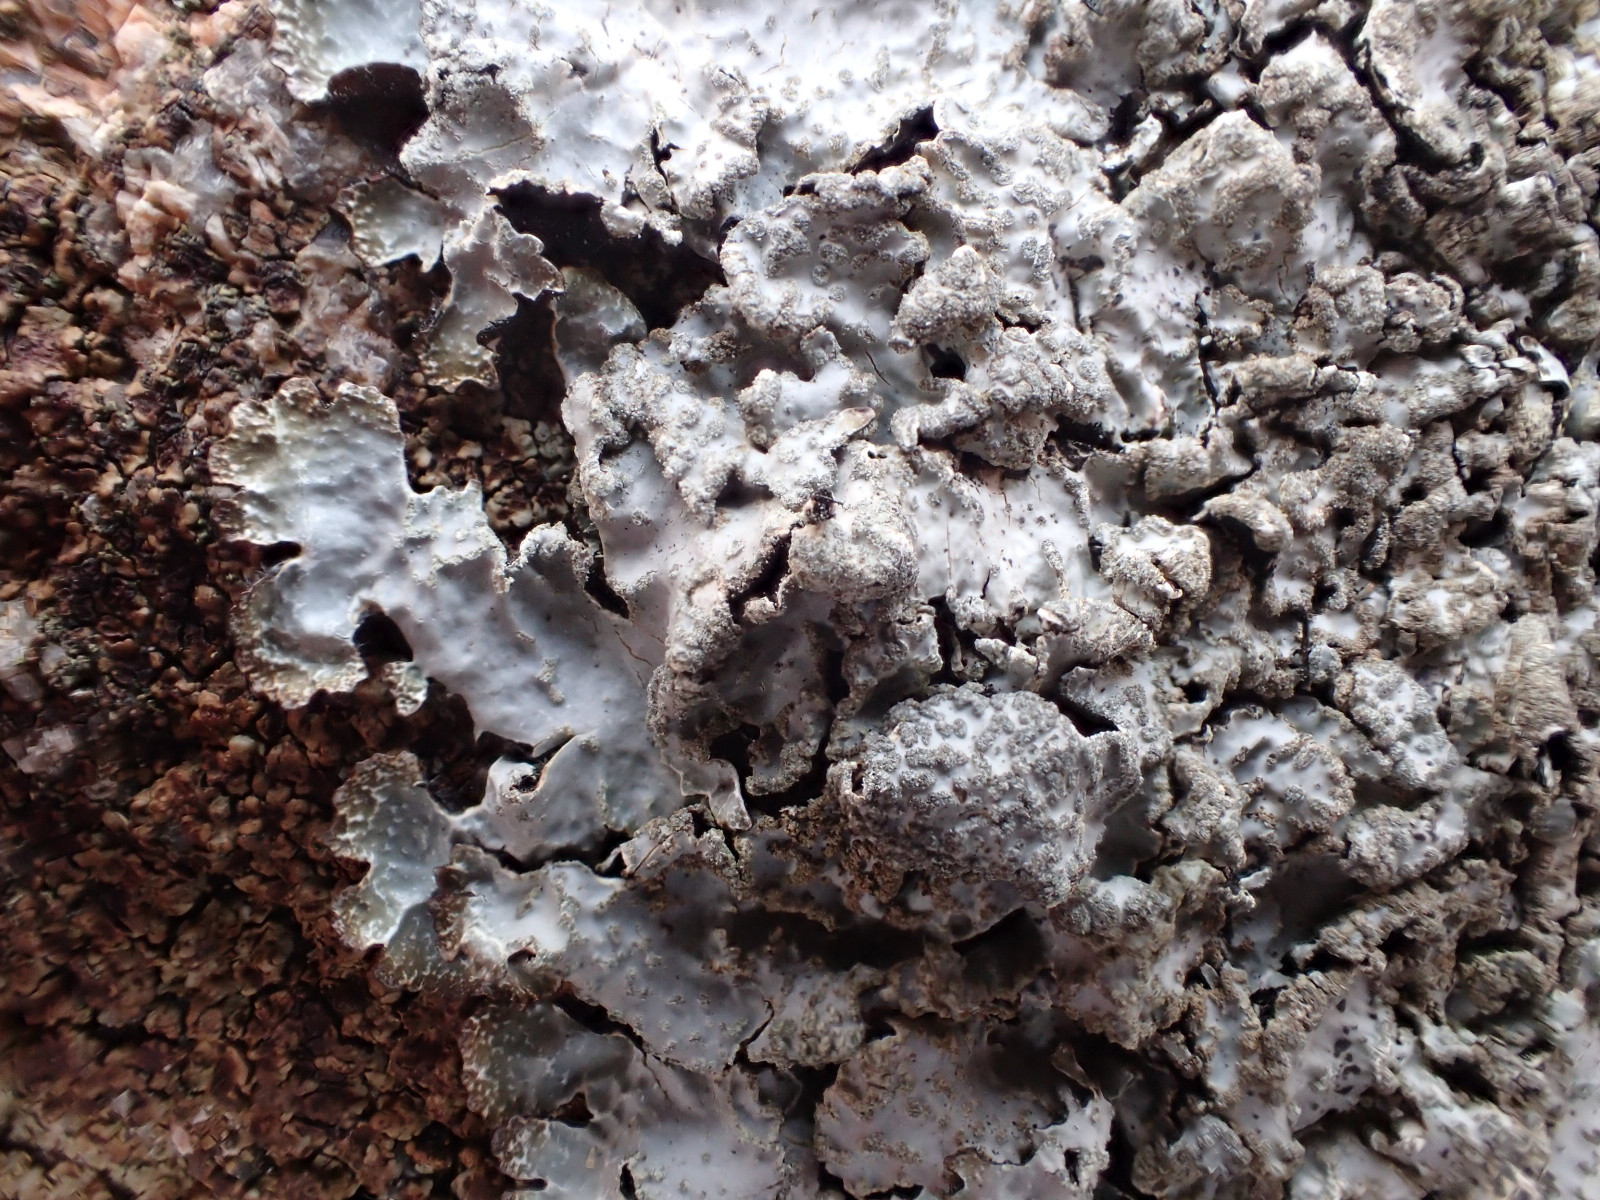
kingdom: Fungi
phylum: Ascomycota
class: Lecanoromycetes
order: Lecanorales
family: Parmeliaceae
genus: Parmelia
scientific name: Parmelia sulcata
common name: rynket skållav
